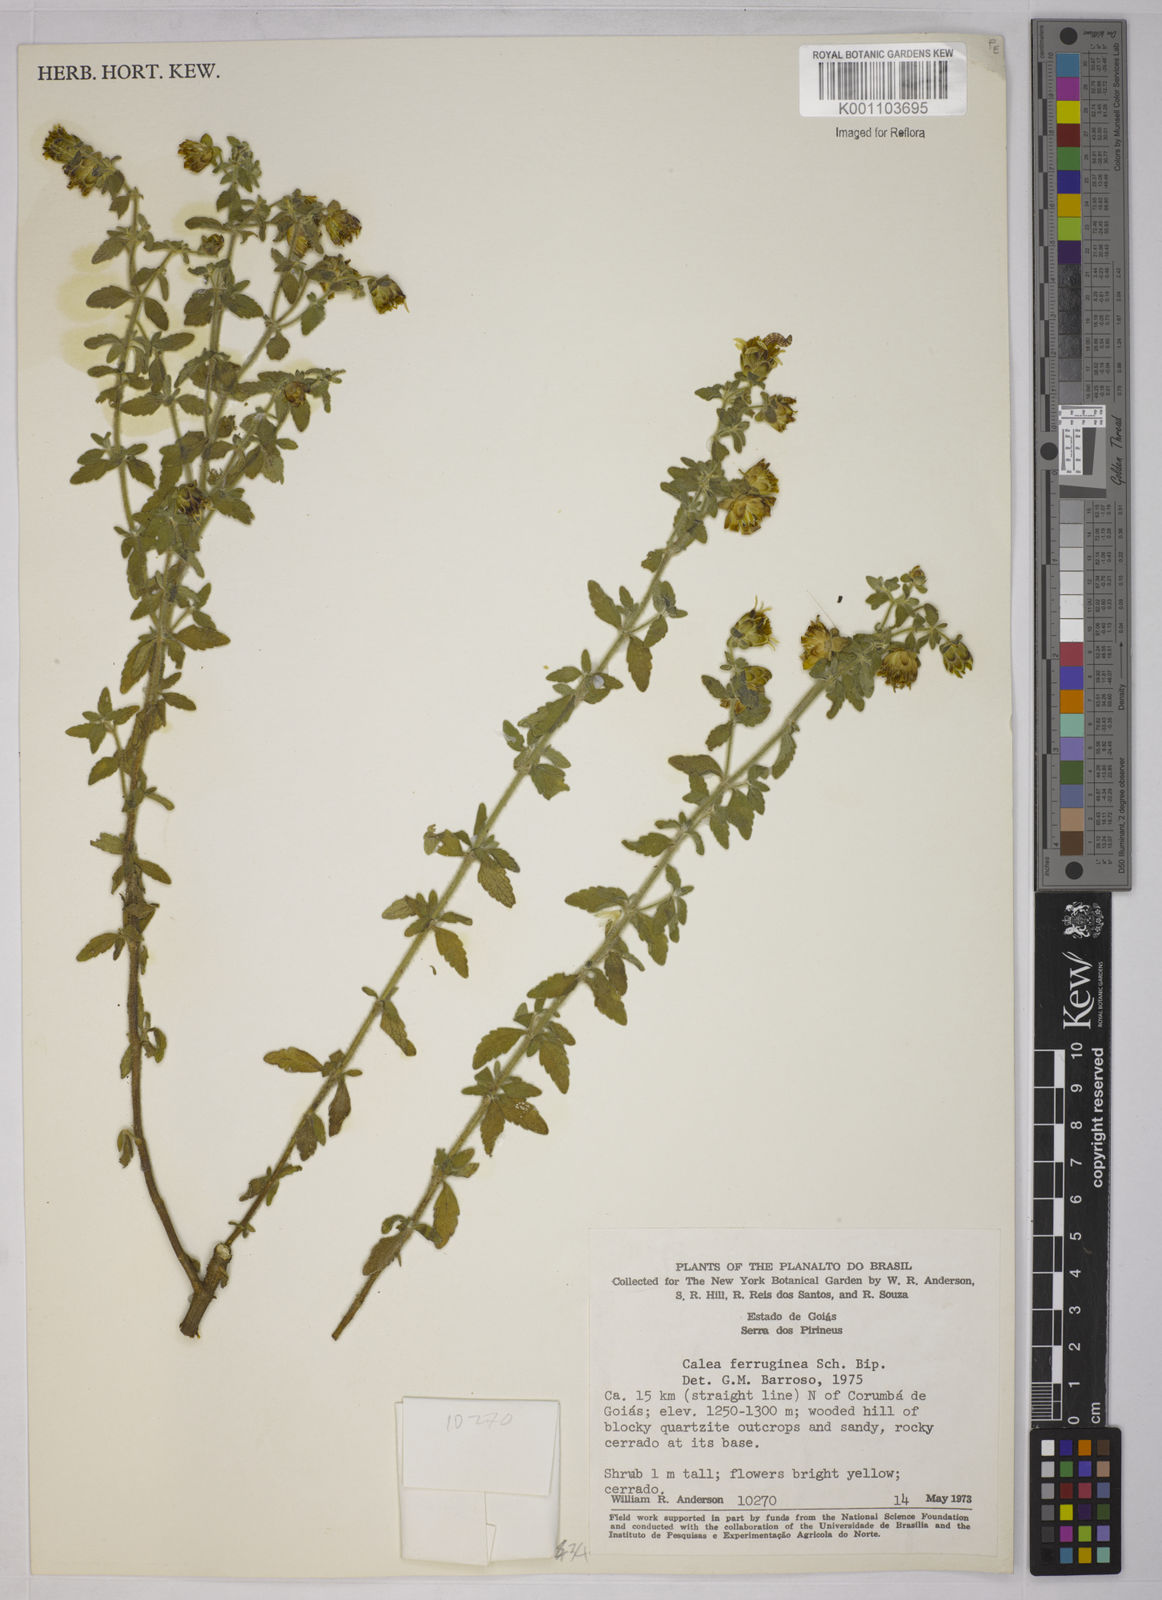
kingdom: Plantae
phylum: Tracheophyta
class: Magnoliopsida
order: Asterales
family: Asteraceae
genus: Calea
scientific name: Calea ferruginea
